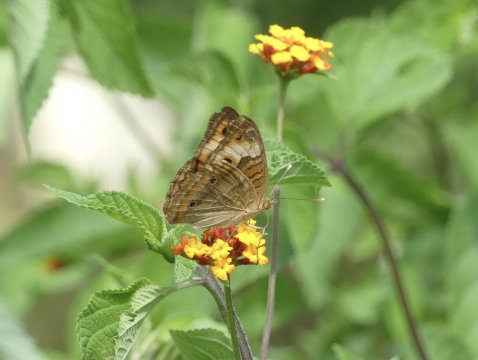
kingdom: Animalia
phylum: Arthropoda
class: Insecta
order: Lepidoptera
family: Nymphalidae
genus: Junonia
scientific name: Junonia lavinia
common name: Tropical Buckeye
